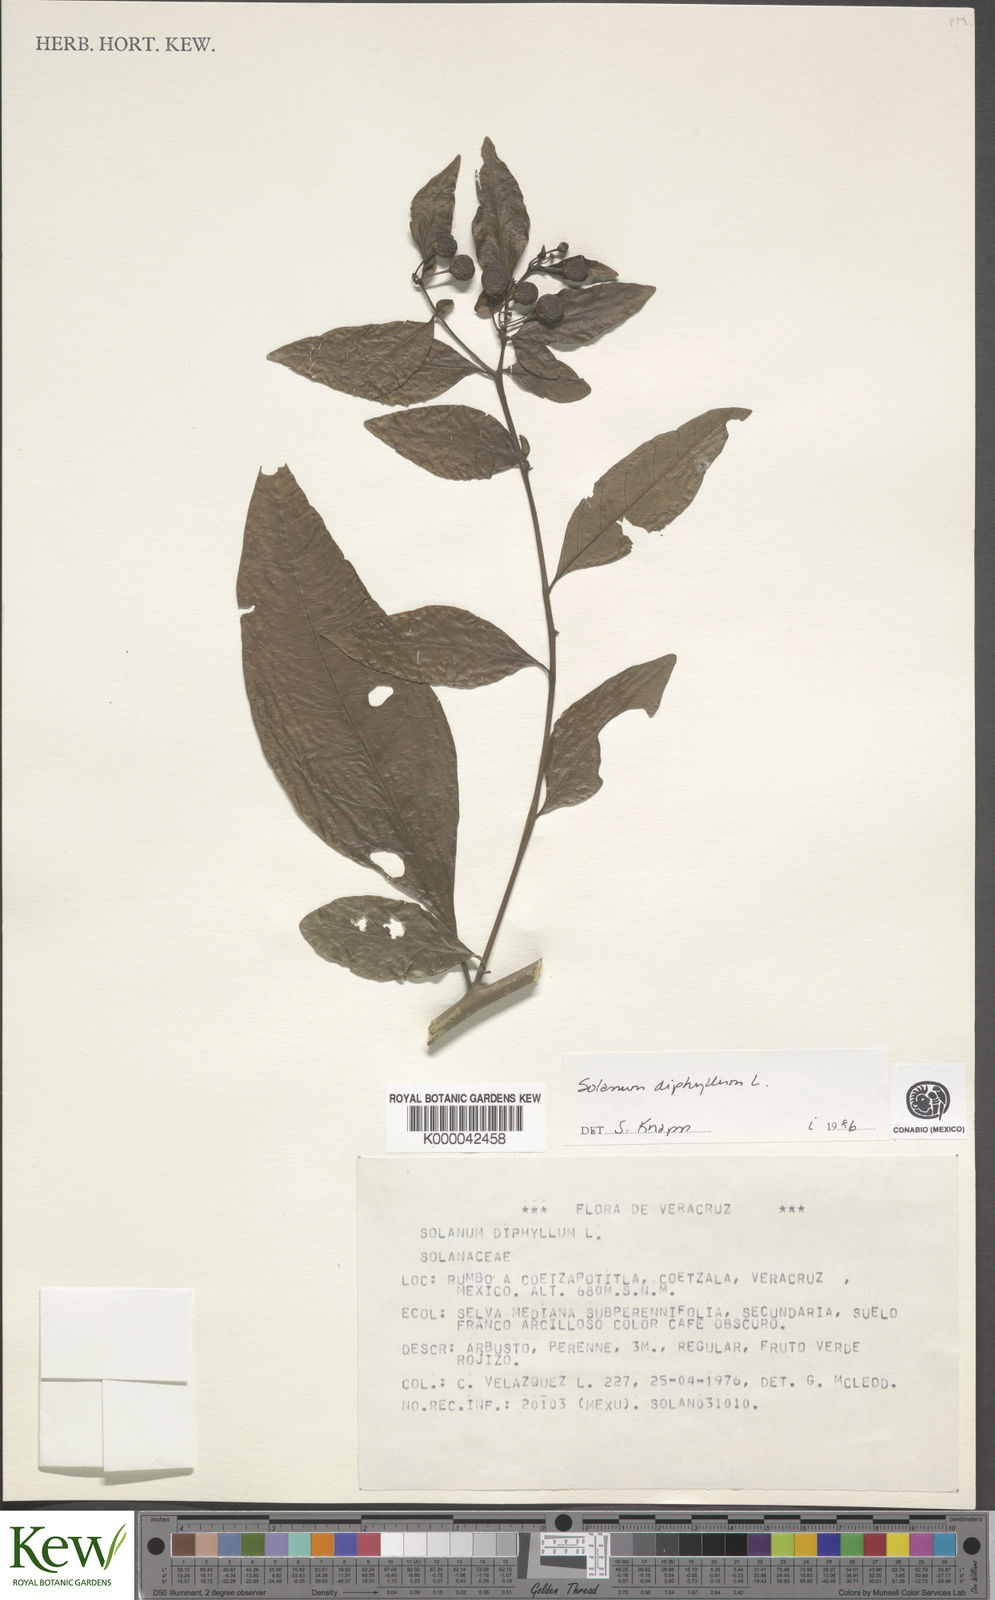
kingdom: Plantae
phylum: Tracheophyta
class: Magnoliopsida
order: Solanales
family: Solanaceae
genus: Solanum
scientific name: Solanum
